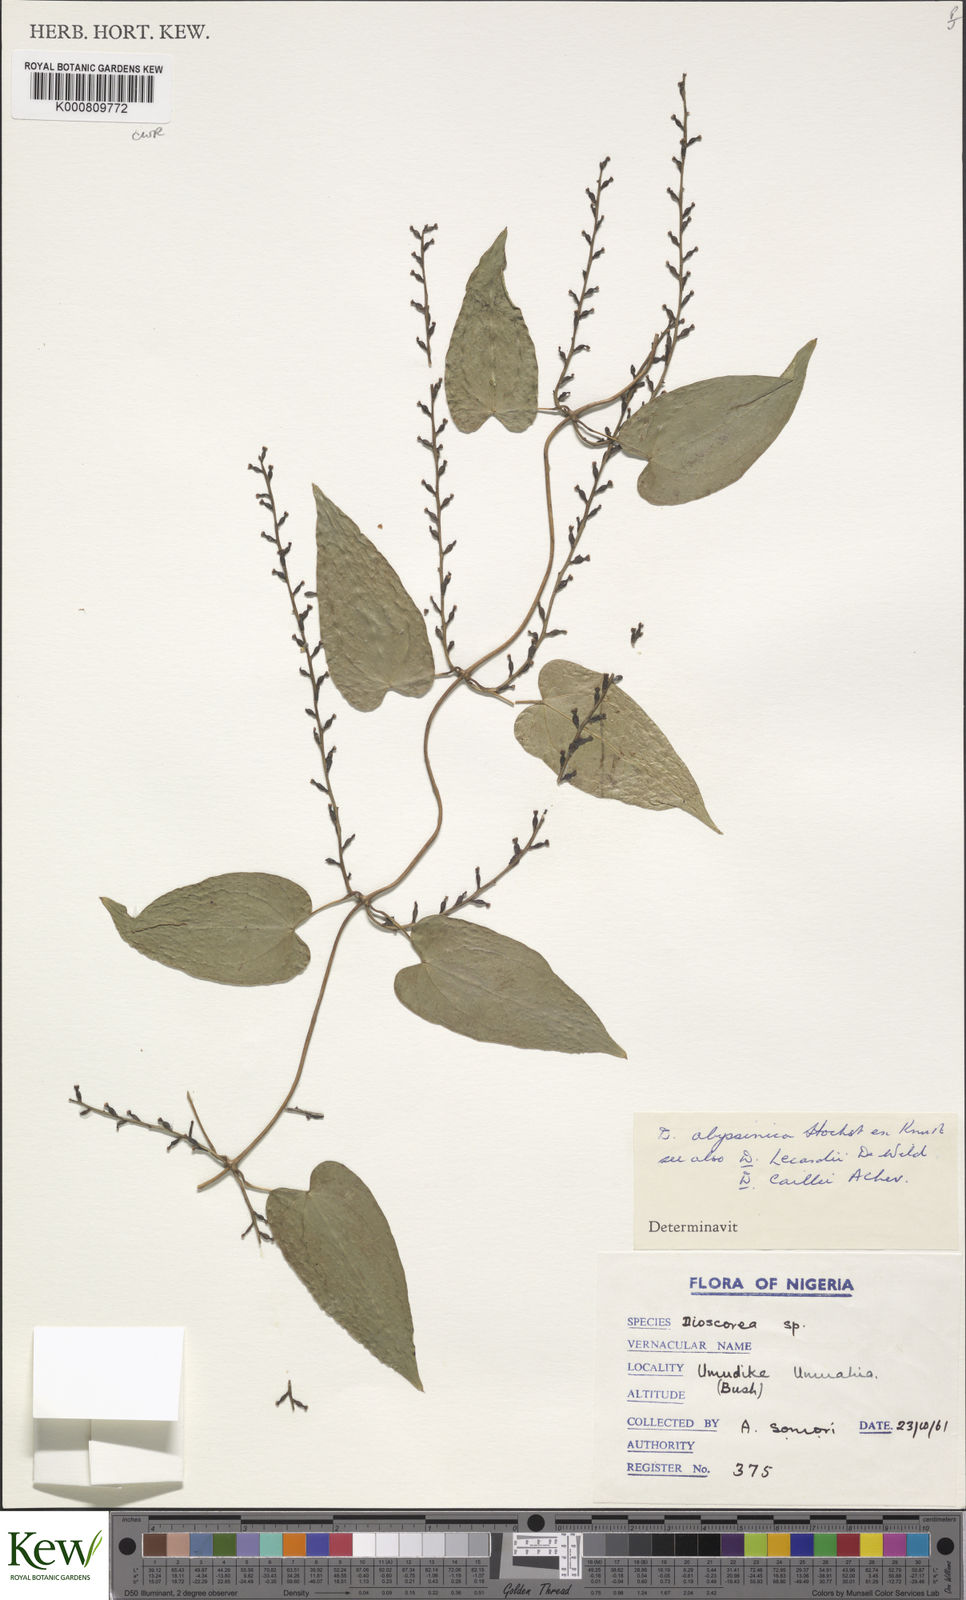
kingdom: Plantae
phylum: Tracheophyta
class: Liliopsida
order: Dioscoreales
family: Dioscoreaceae
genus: Dioscorea
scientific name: Dioscorea abyssinica
